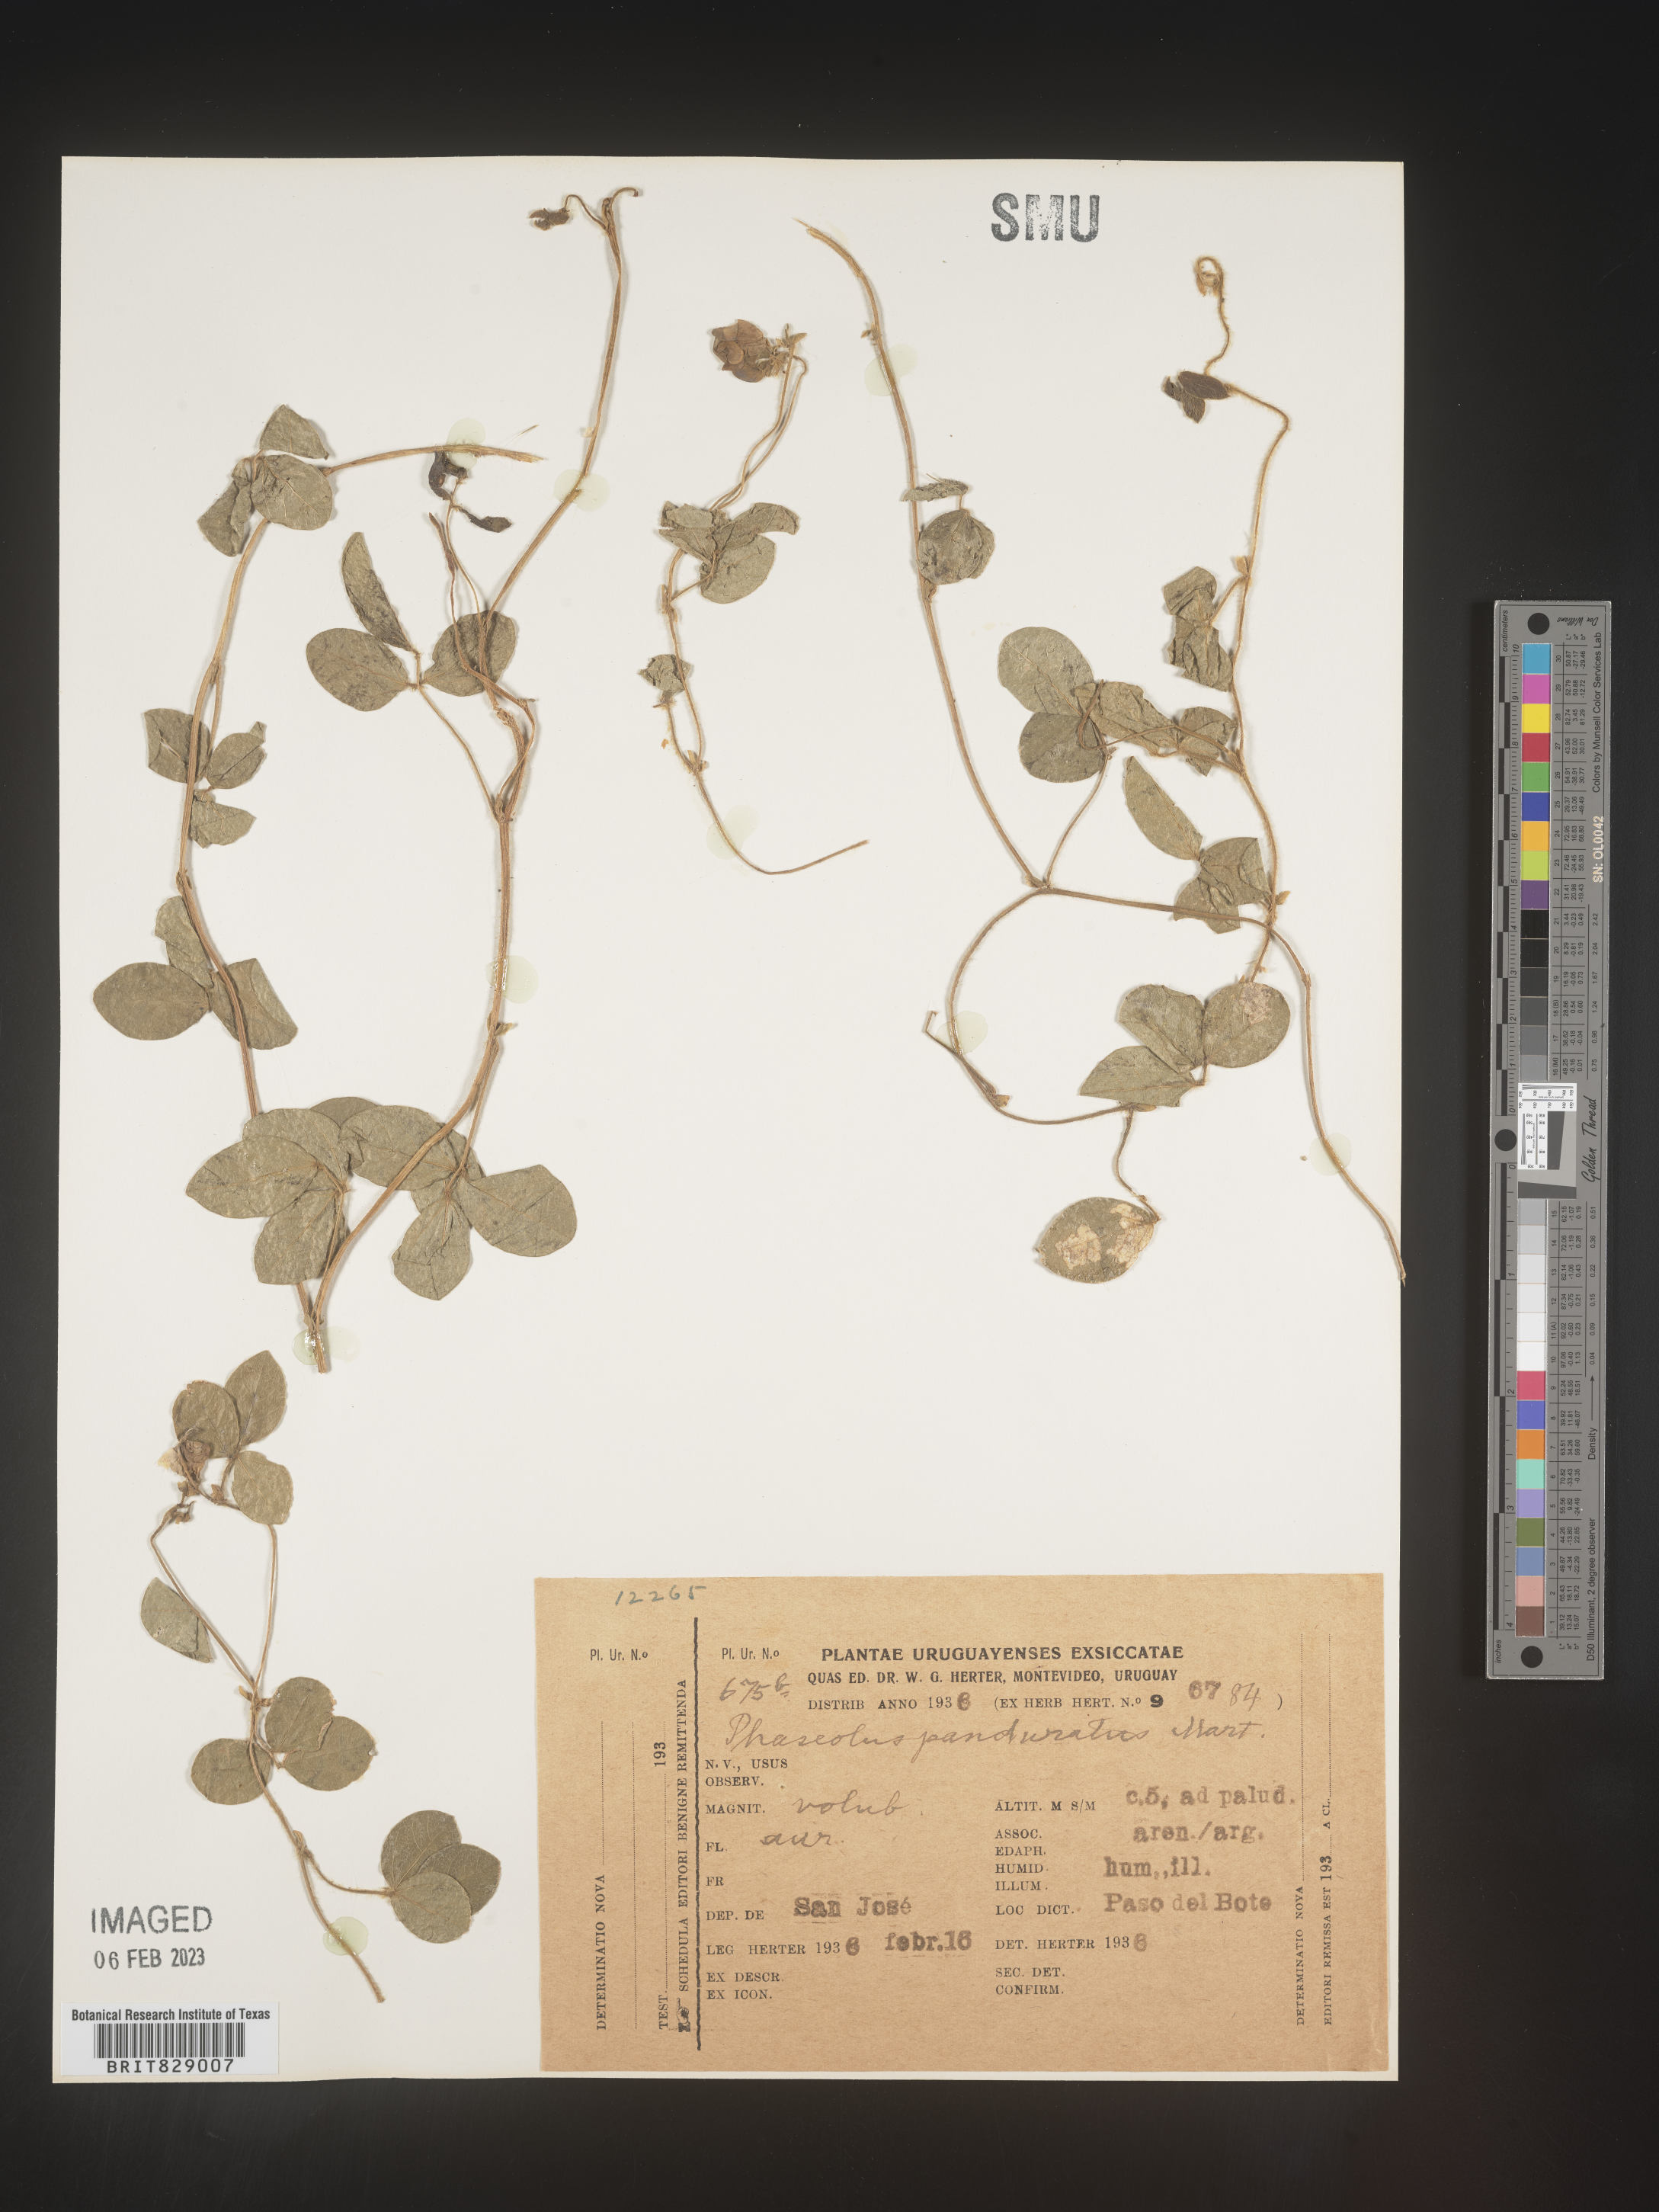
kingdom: Plantae
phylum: Tracheophyta
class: Magnoliopsida
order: Fabales
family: Fabaceae
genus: Phaseolus
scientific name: Phaseolus
